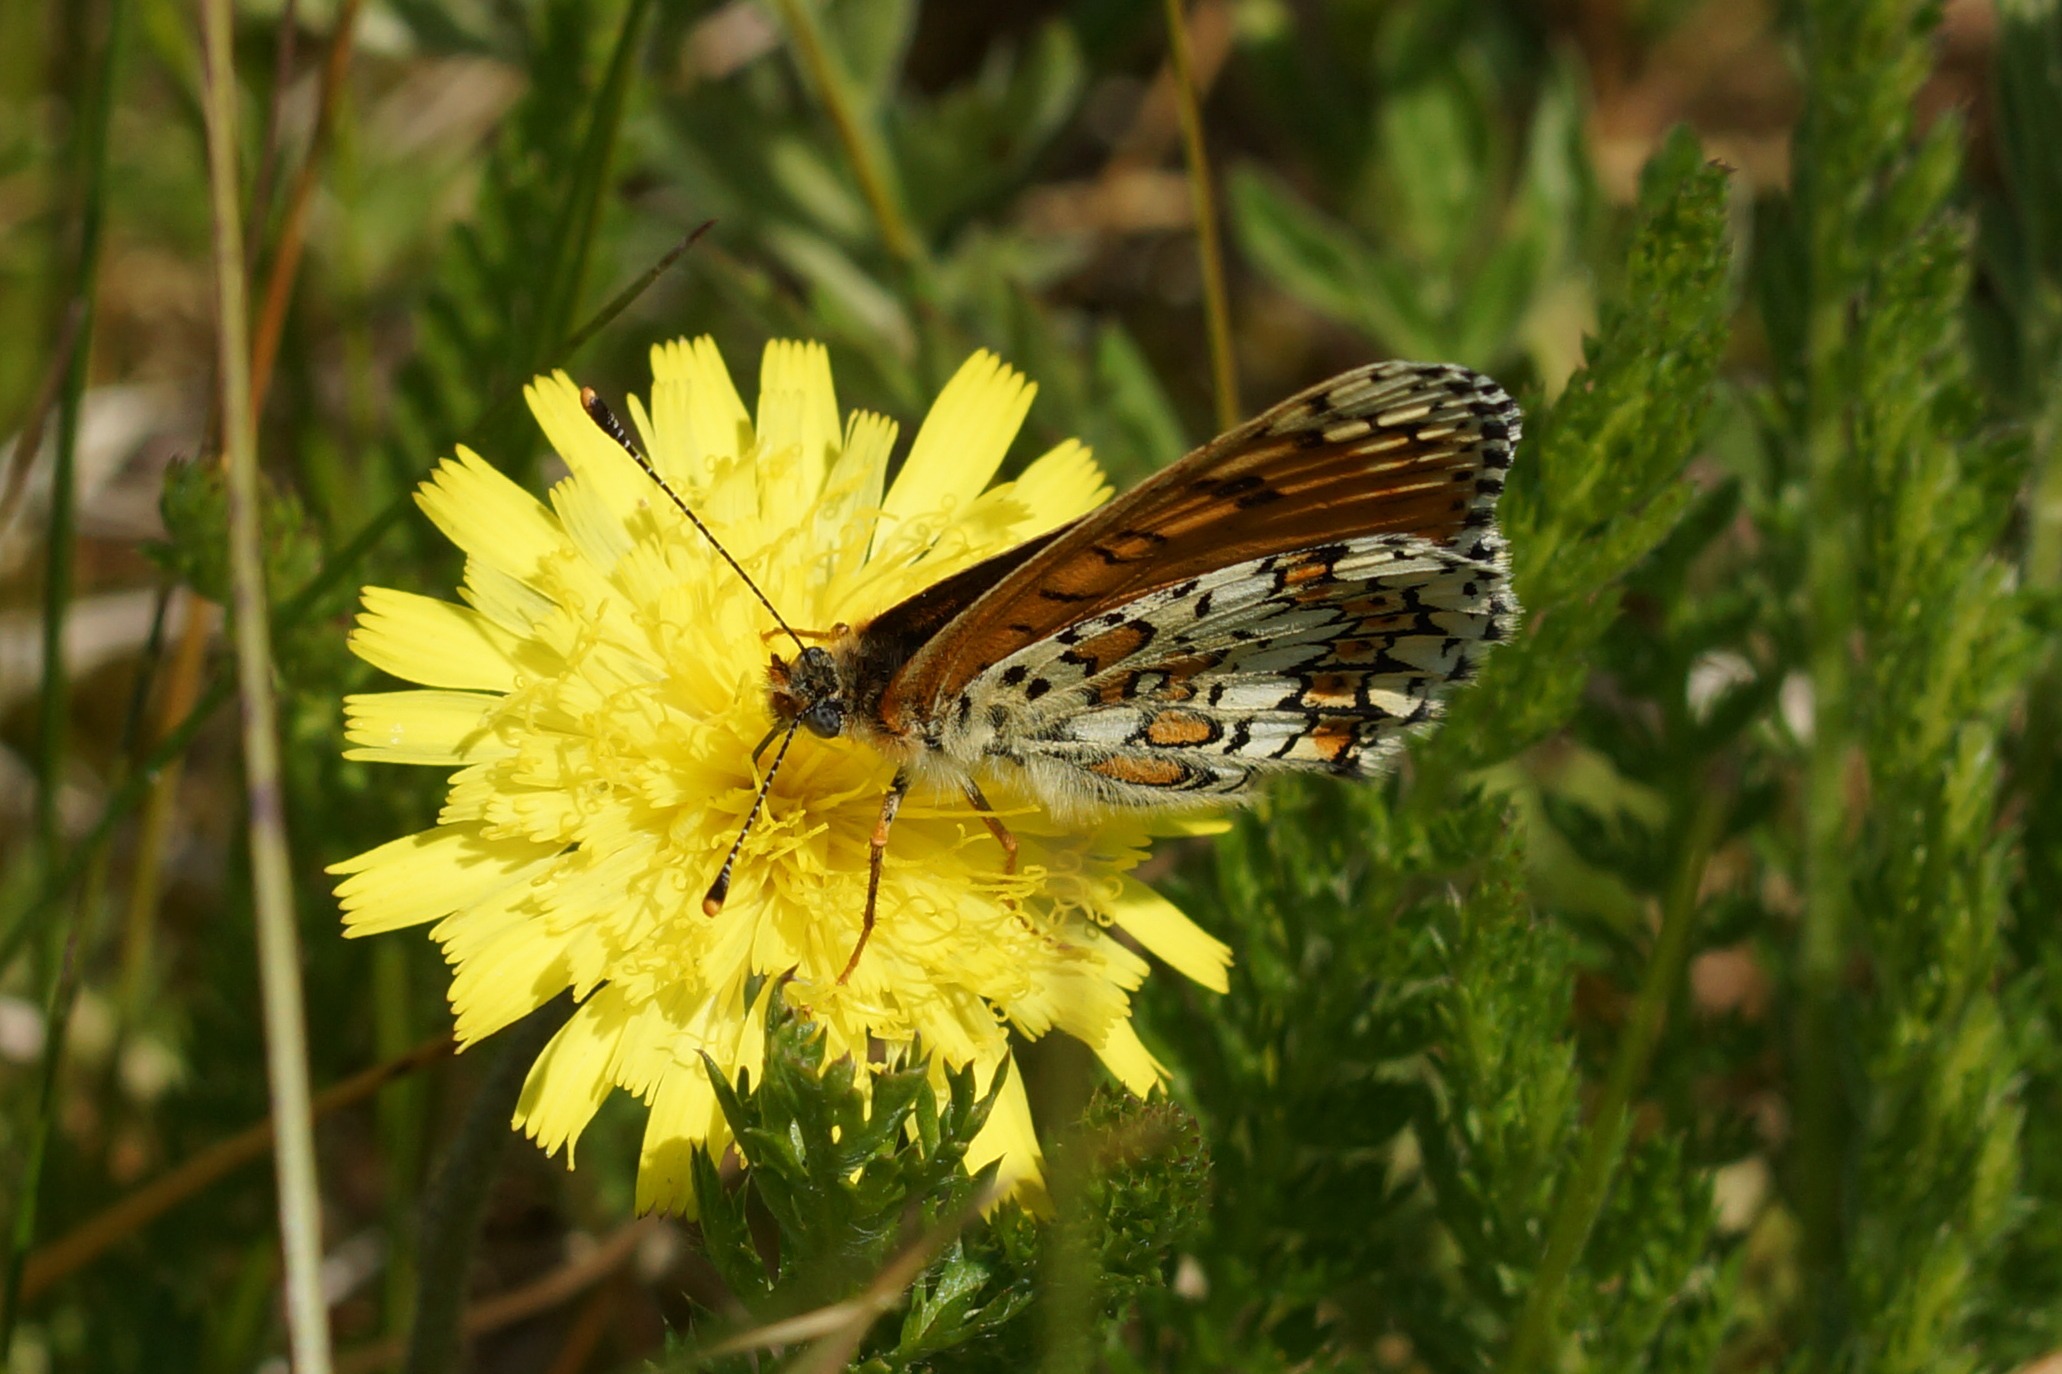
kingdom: Animalia
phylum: Arthropoda
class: Insecta
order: Lepidoptera
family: Nymphalidae
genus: Melitaea
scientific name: Melitaea cinxia
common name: Okkergul pletvinge
